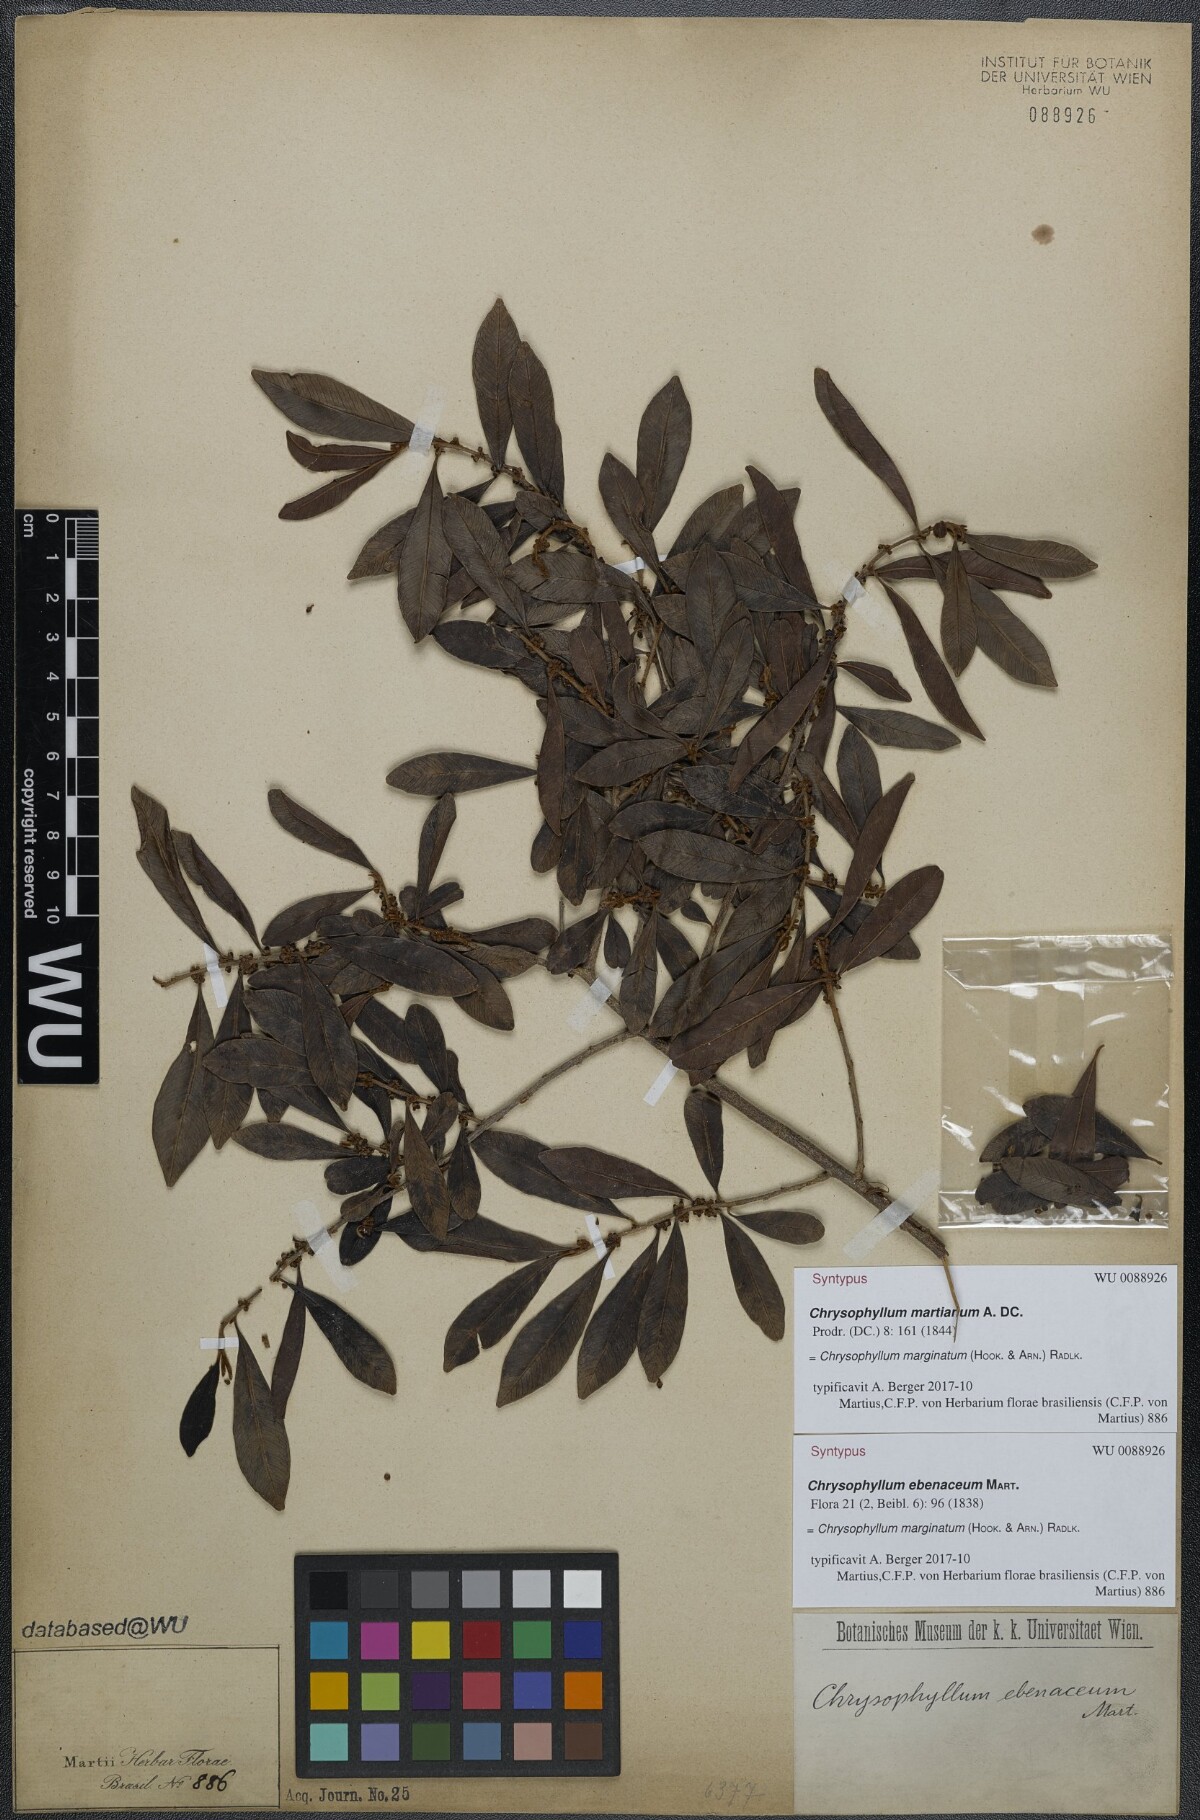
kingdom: Plantae
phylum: Tracheophyta
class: Magnoliopsida
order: Ericales
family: Sapotaceae
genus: Chrysophyllum
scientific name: Chrysophyllum marginatum
